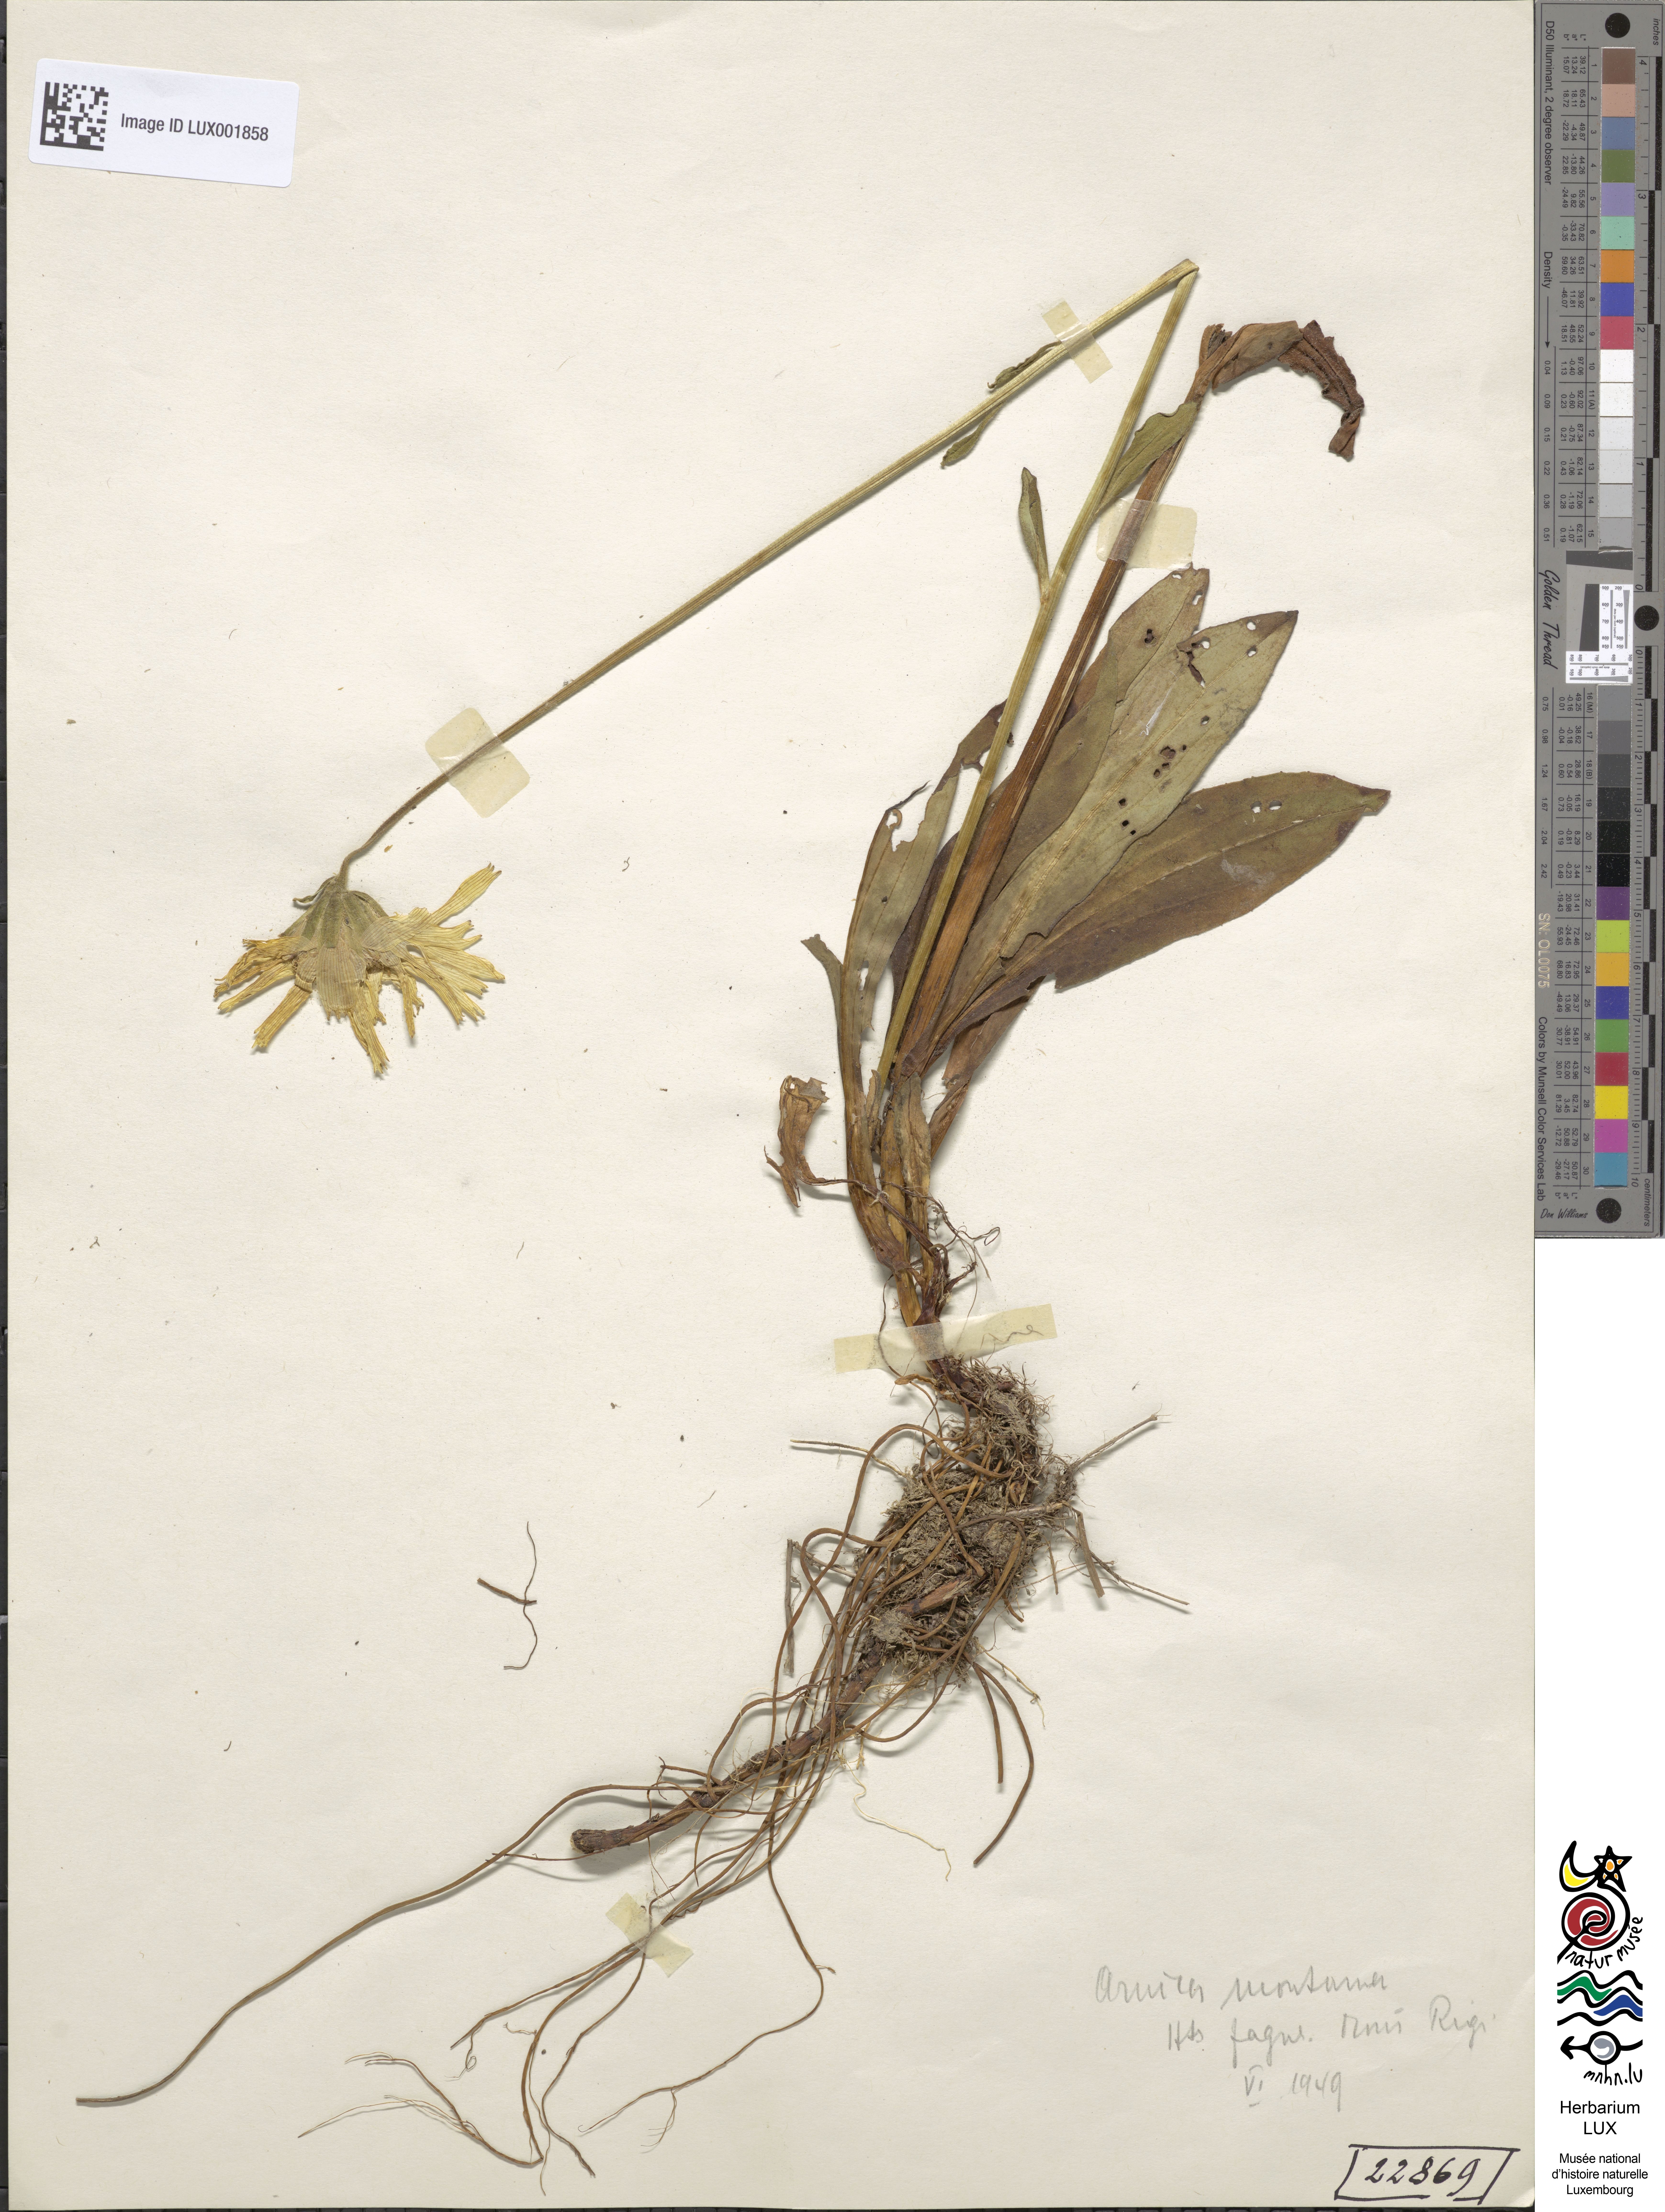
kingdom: Plantae
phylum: Tracheophyta
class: Magnoliopsida
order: Asterales
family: Asteraceae
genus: Arnica
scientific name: Arnica montana
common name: Leopard's bane
